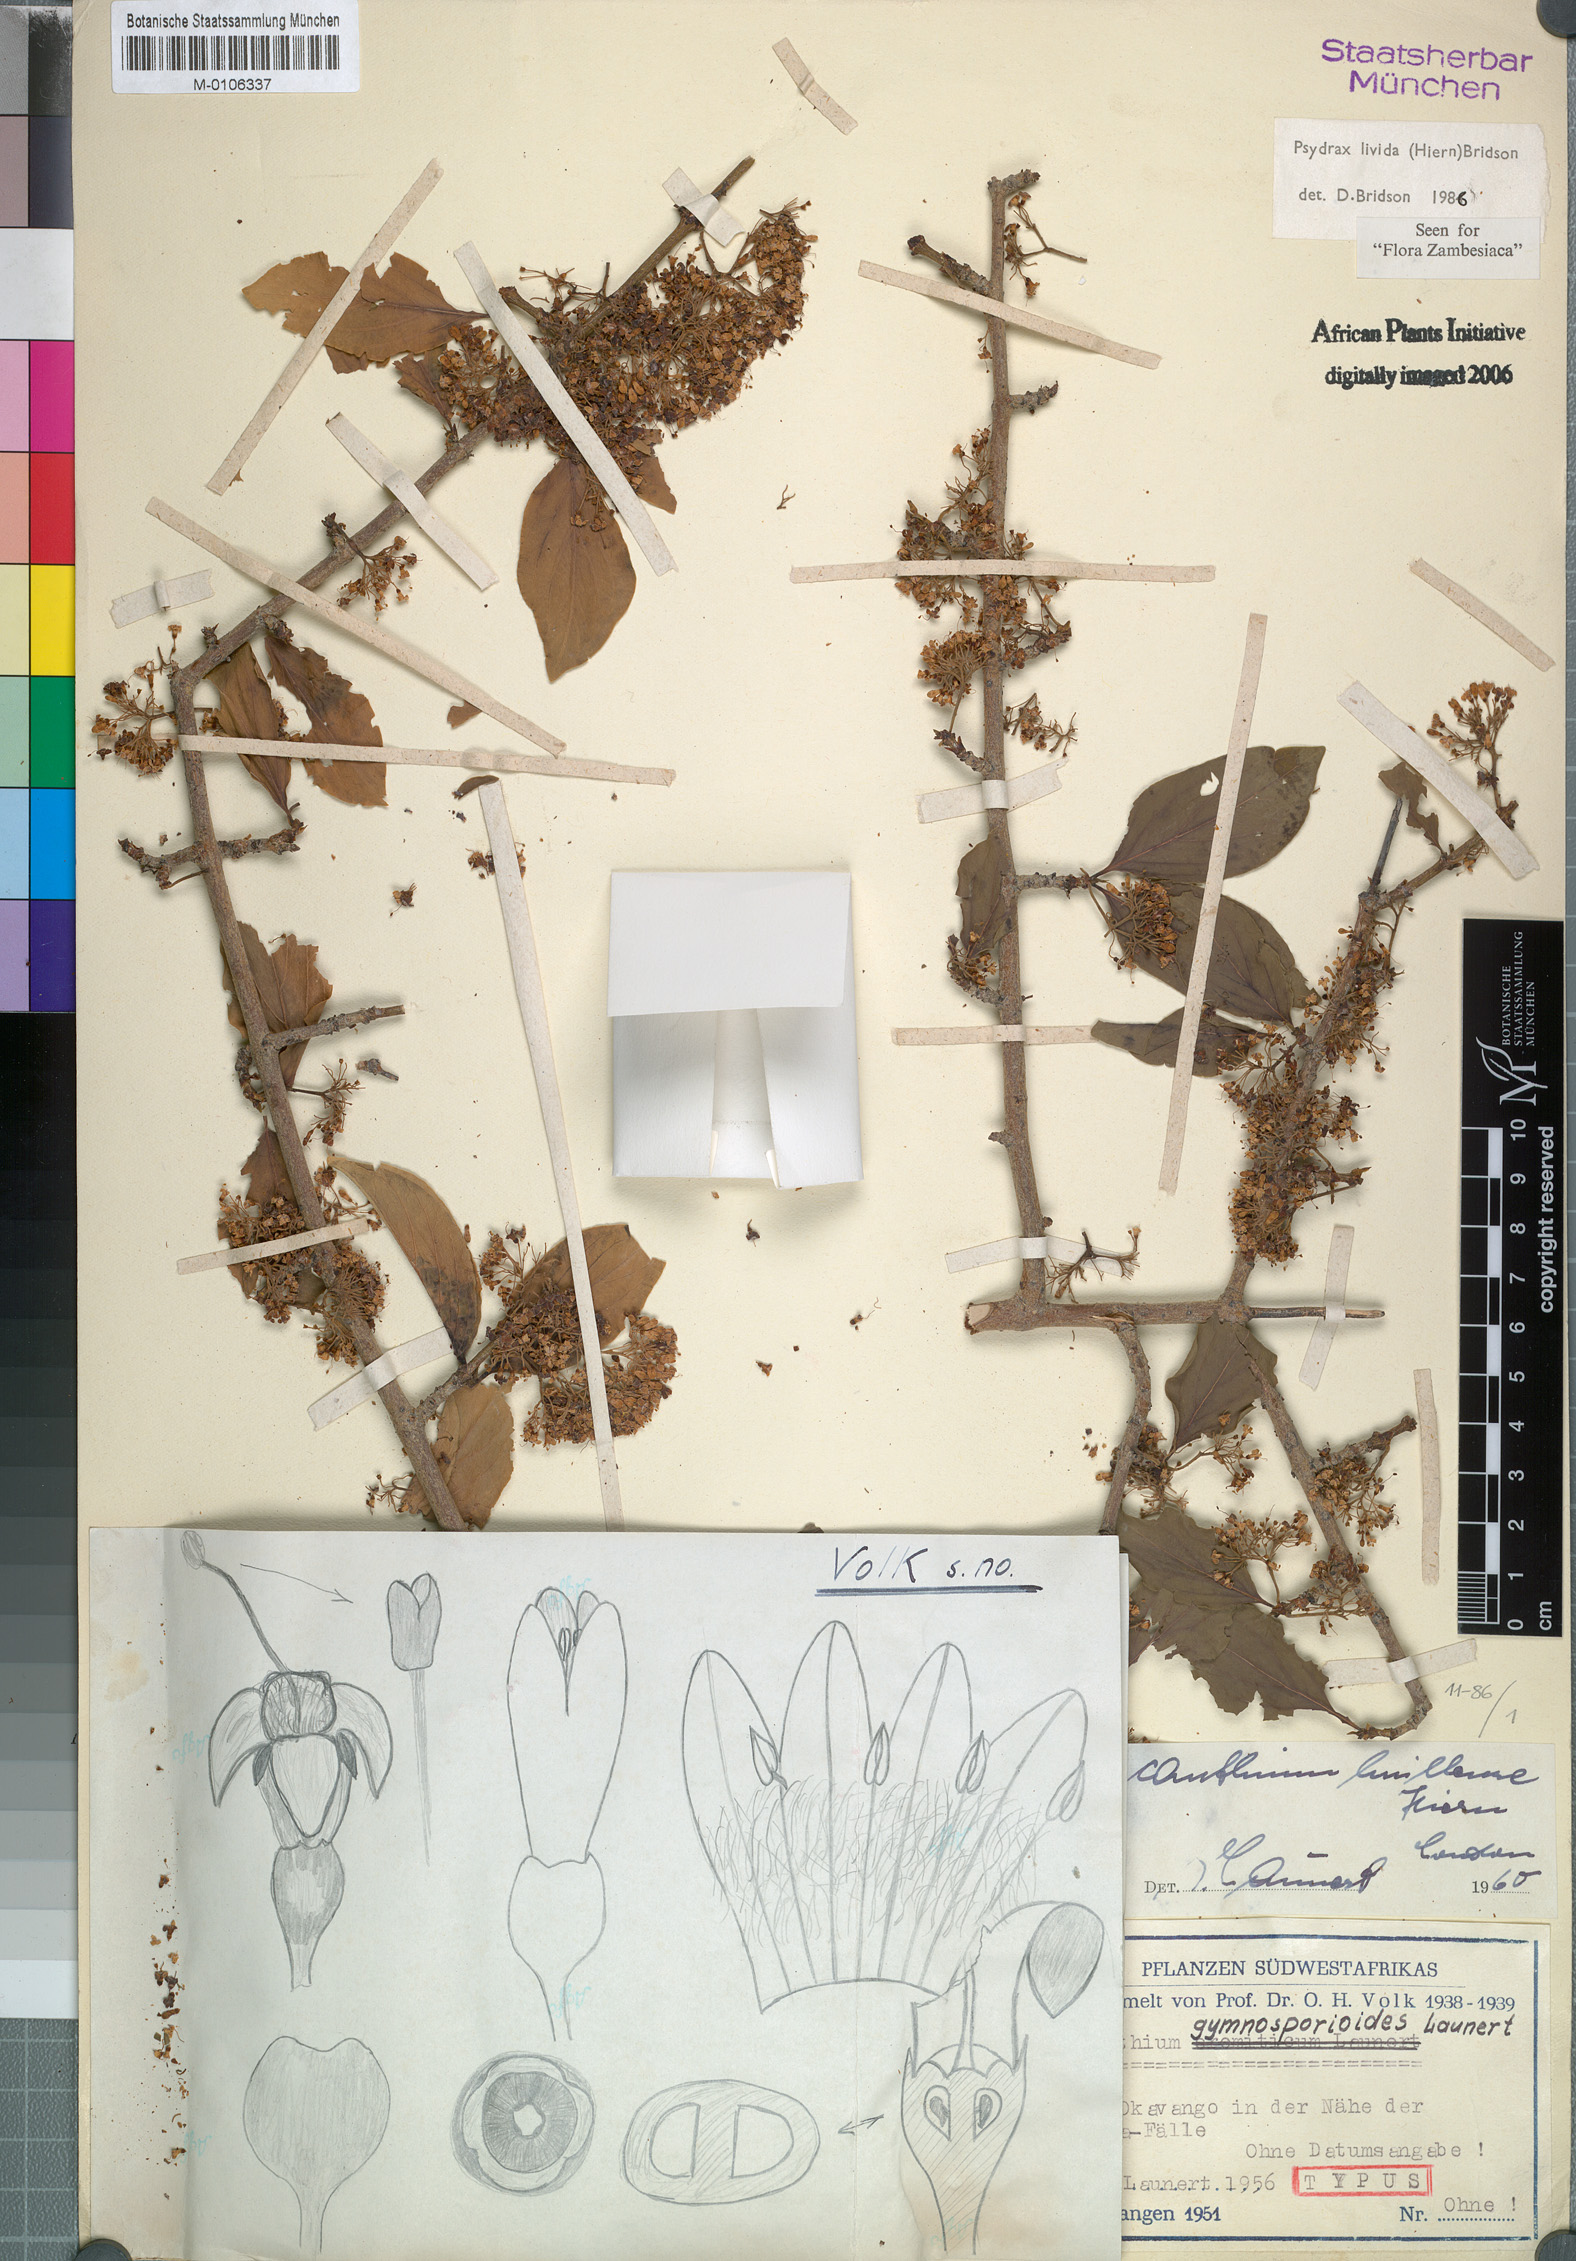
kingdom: Plantae
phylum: Tracheophyta
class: Magnoliopsida
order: Gentianales
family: Rubiaceae
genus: Psydrax
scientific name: Psydrax lividus
